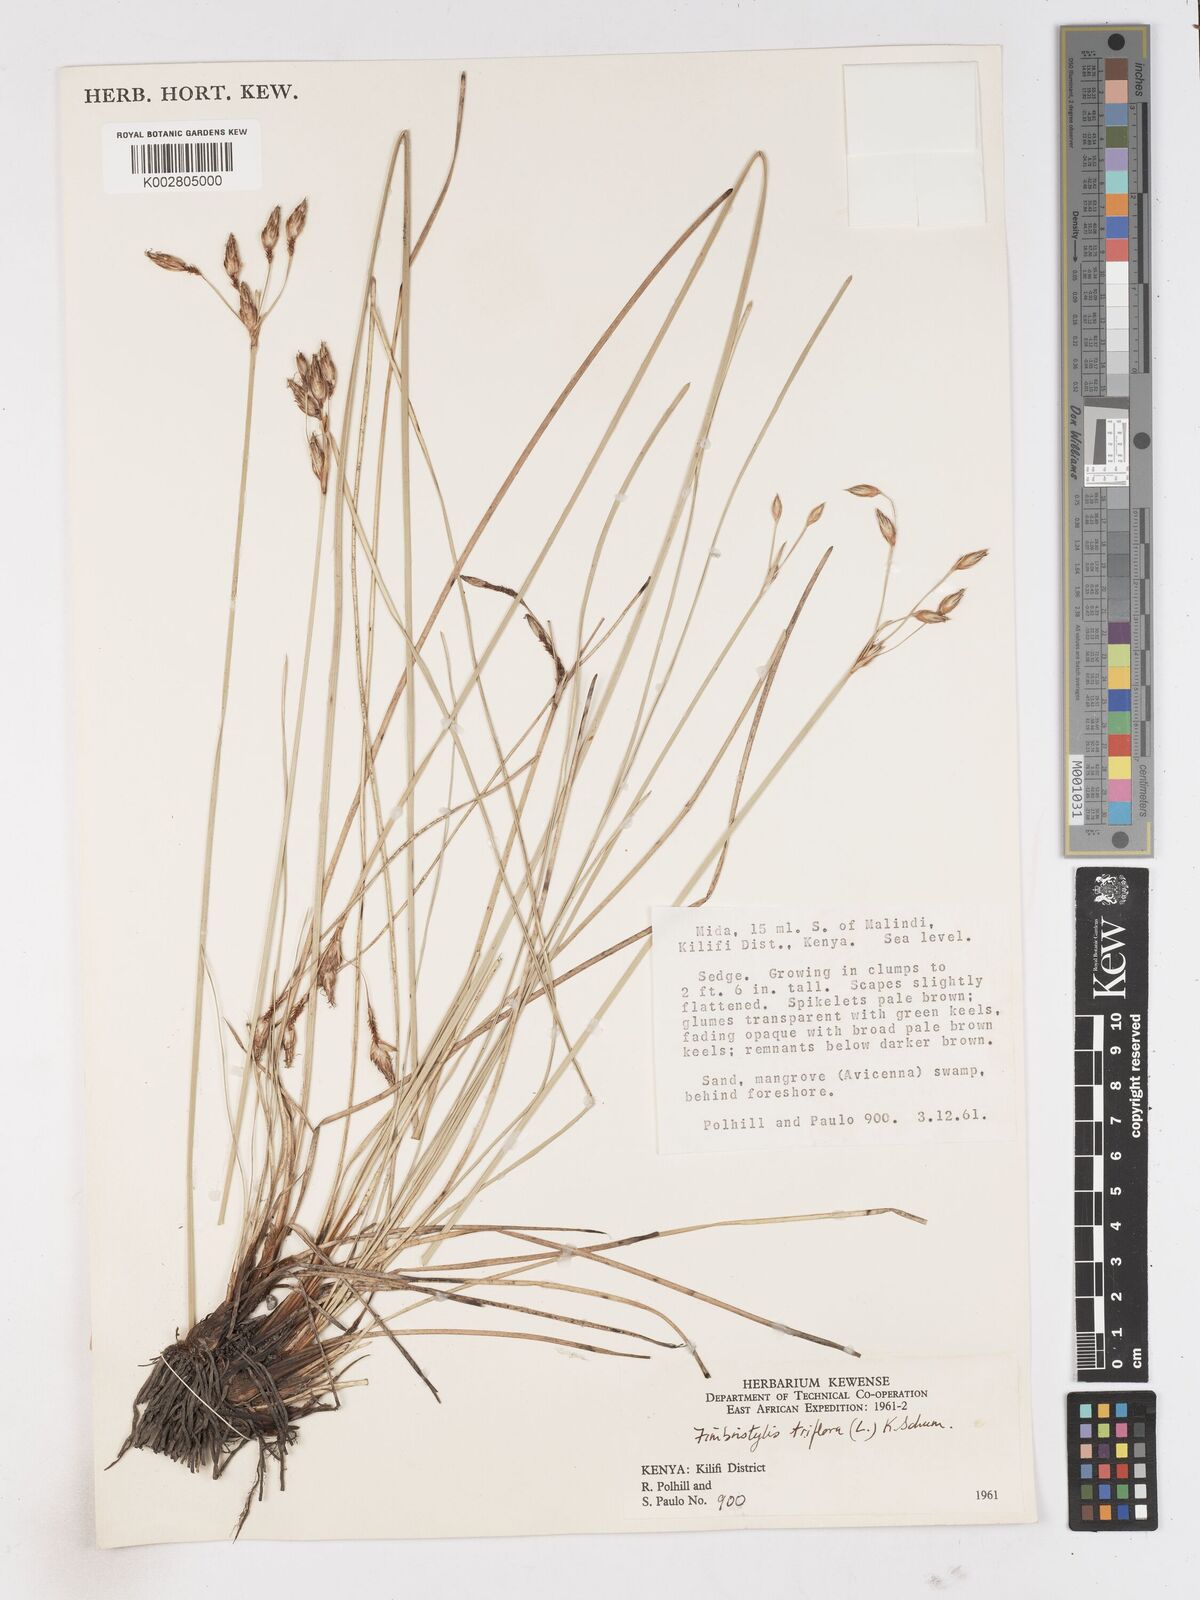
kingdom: Plantae
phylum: Tracheophyta
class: Liliopsida
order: Poales
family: Cyperaceae
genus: Abildgaardia
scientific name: Abildgaardia triflora
